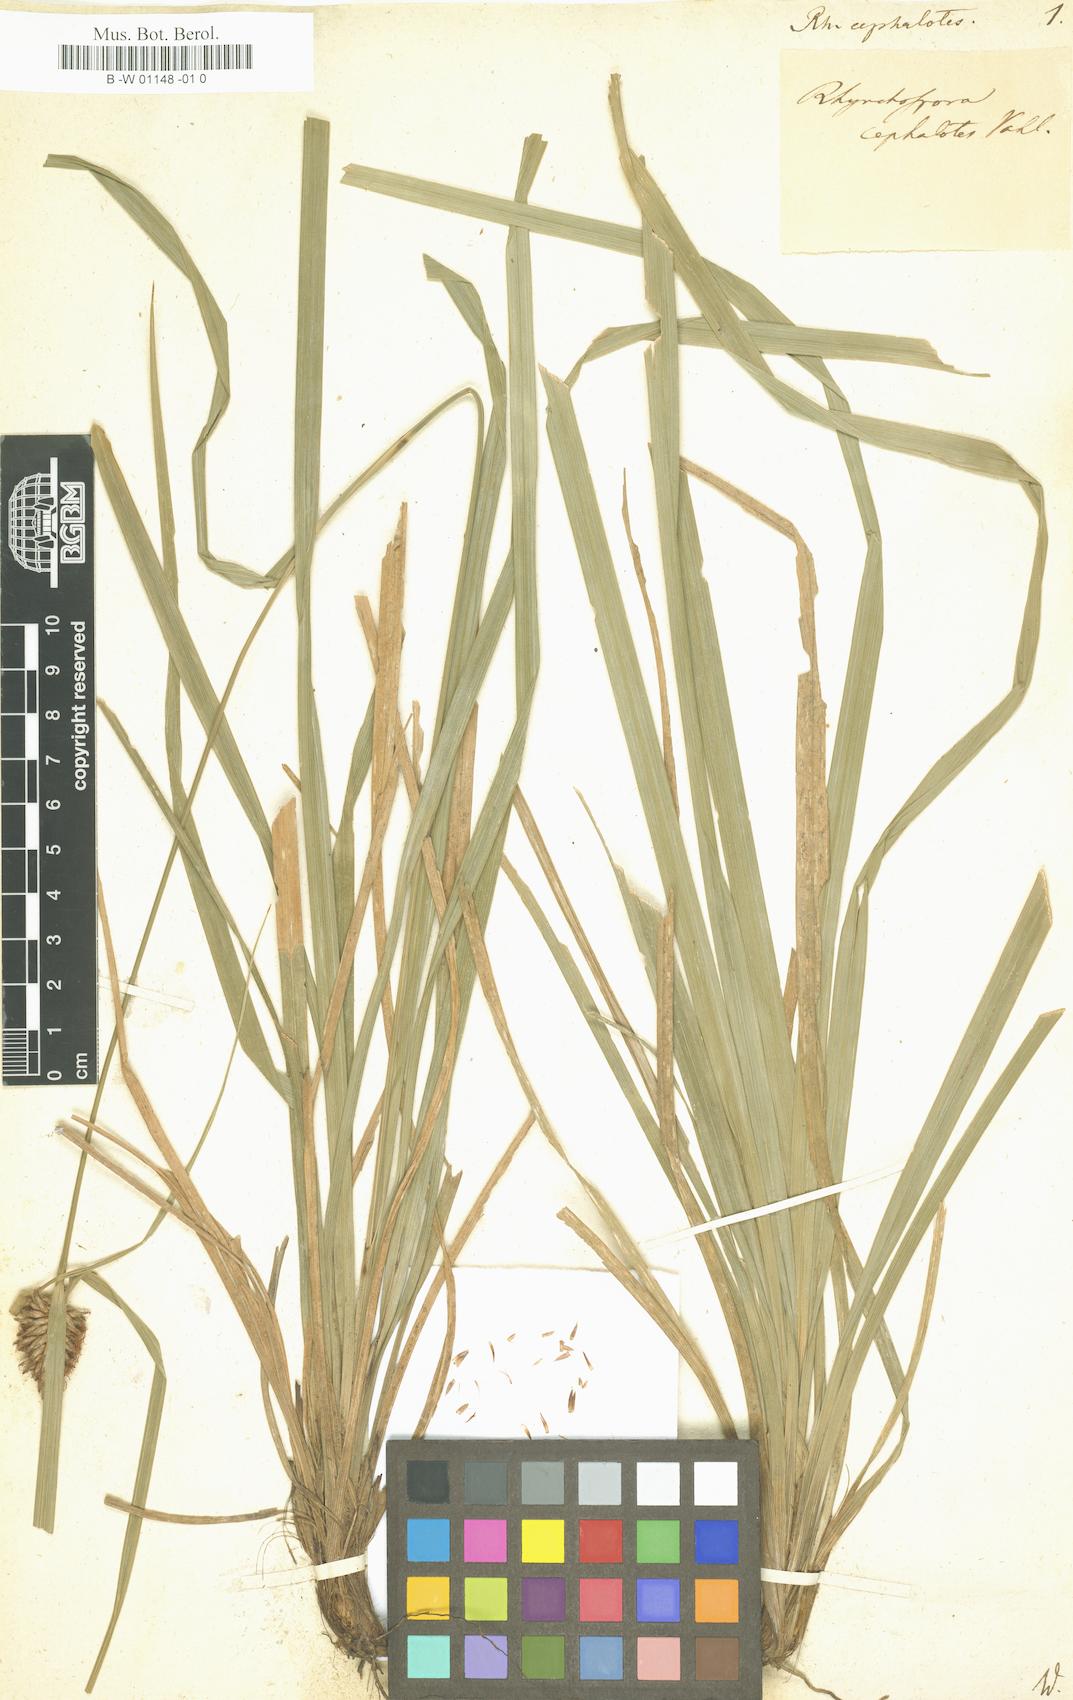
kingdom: Plantae
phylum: Tracheophyta
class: Liliopsida
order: Poales
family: Cyperaceae
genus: Rhynchospora
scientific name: Rhynchospora cephalotes
